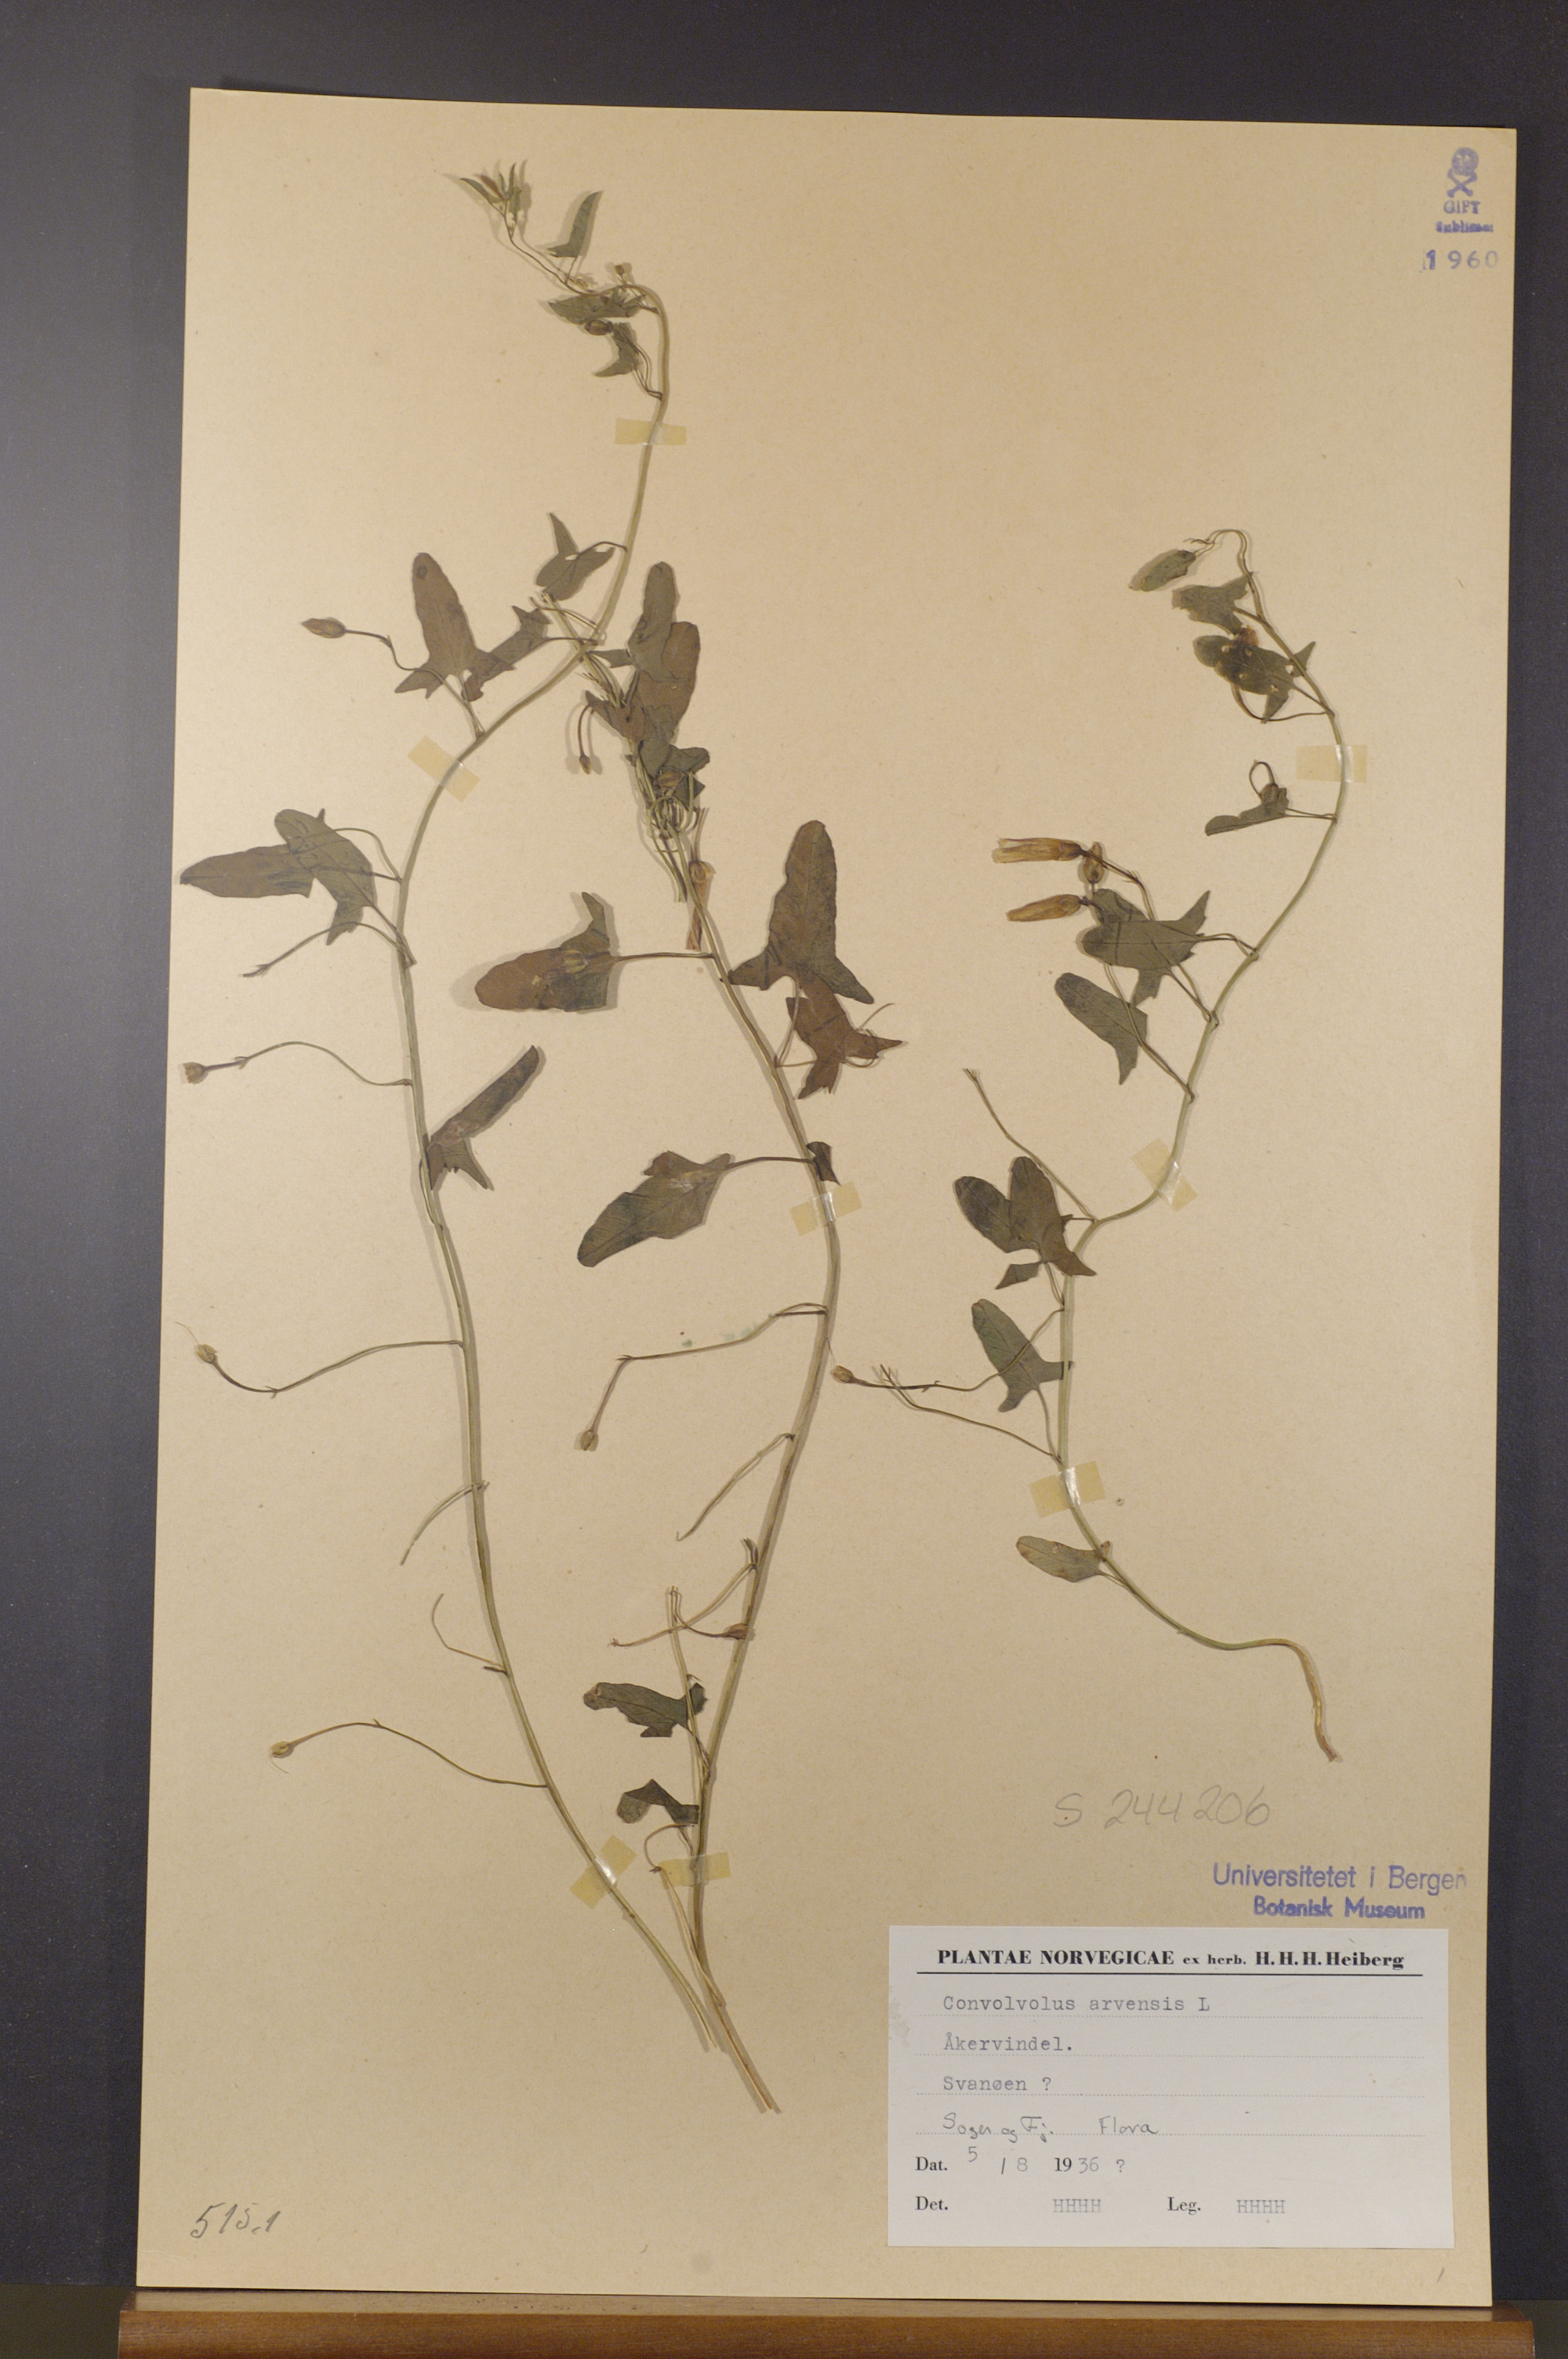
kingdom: Plantae
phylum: Tracheophyta
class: Magnoliopsida
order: Solanales
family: Convolvulaceae
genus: Convolvulus
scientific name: Convolvulus arvensis
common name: Field bindweed
